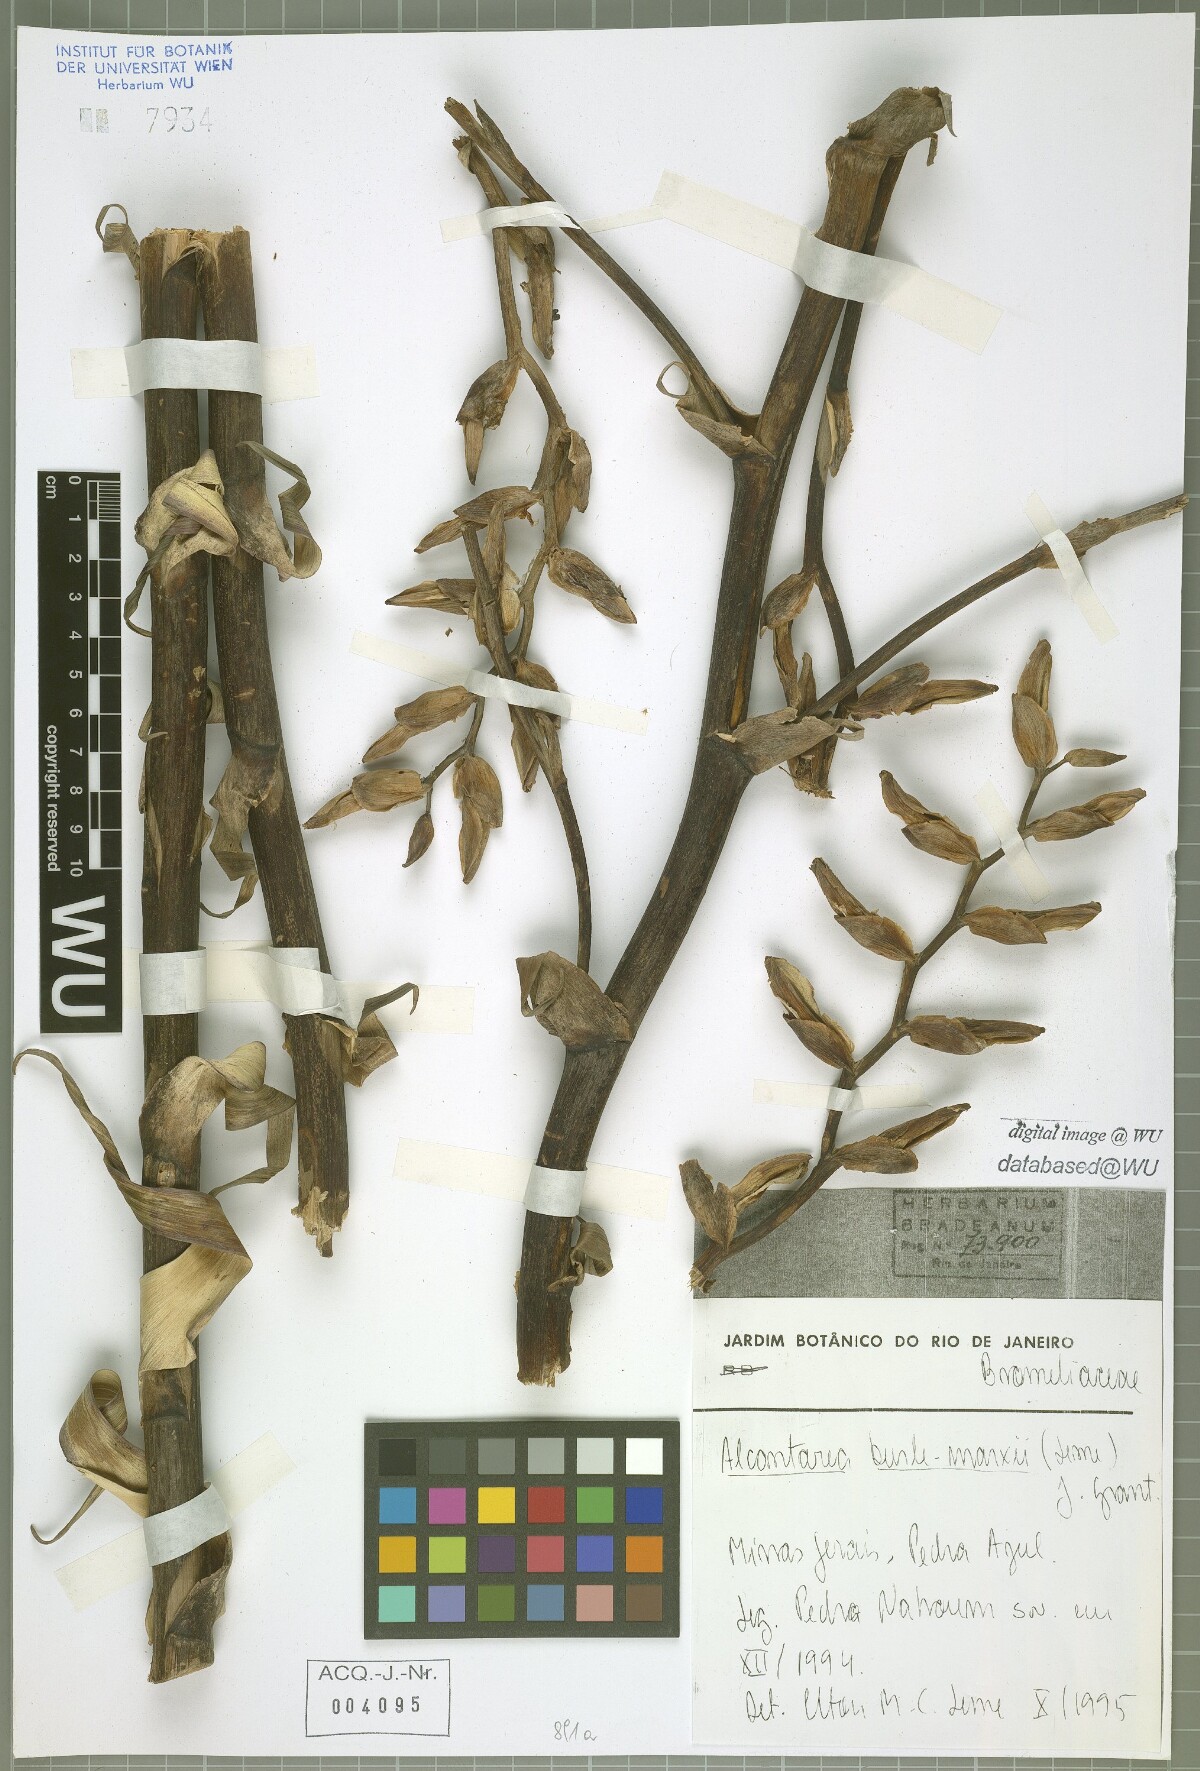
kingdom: Plantae
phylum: Tracheophyta
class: Liliopsida
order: Poales
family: Bromeliaceae
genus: Alcantarea
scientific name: Alcantarea burle-marxii
